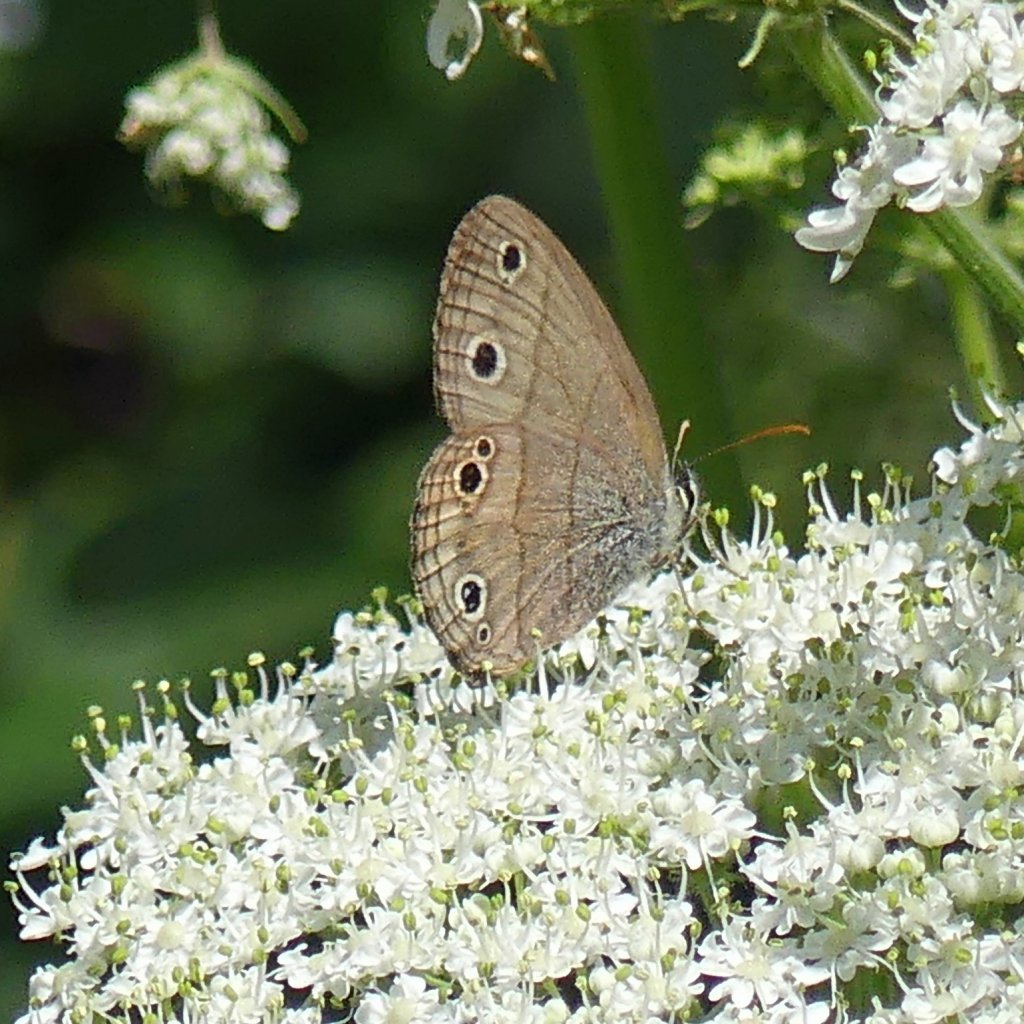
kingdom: Animalia
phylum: Arthropoda
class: Insecta
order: Lepidoptera
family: Nymphalidae
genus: Euptychia
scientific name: Euptychia cymela
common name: Little Wood Satyr
